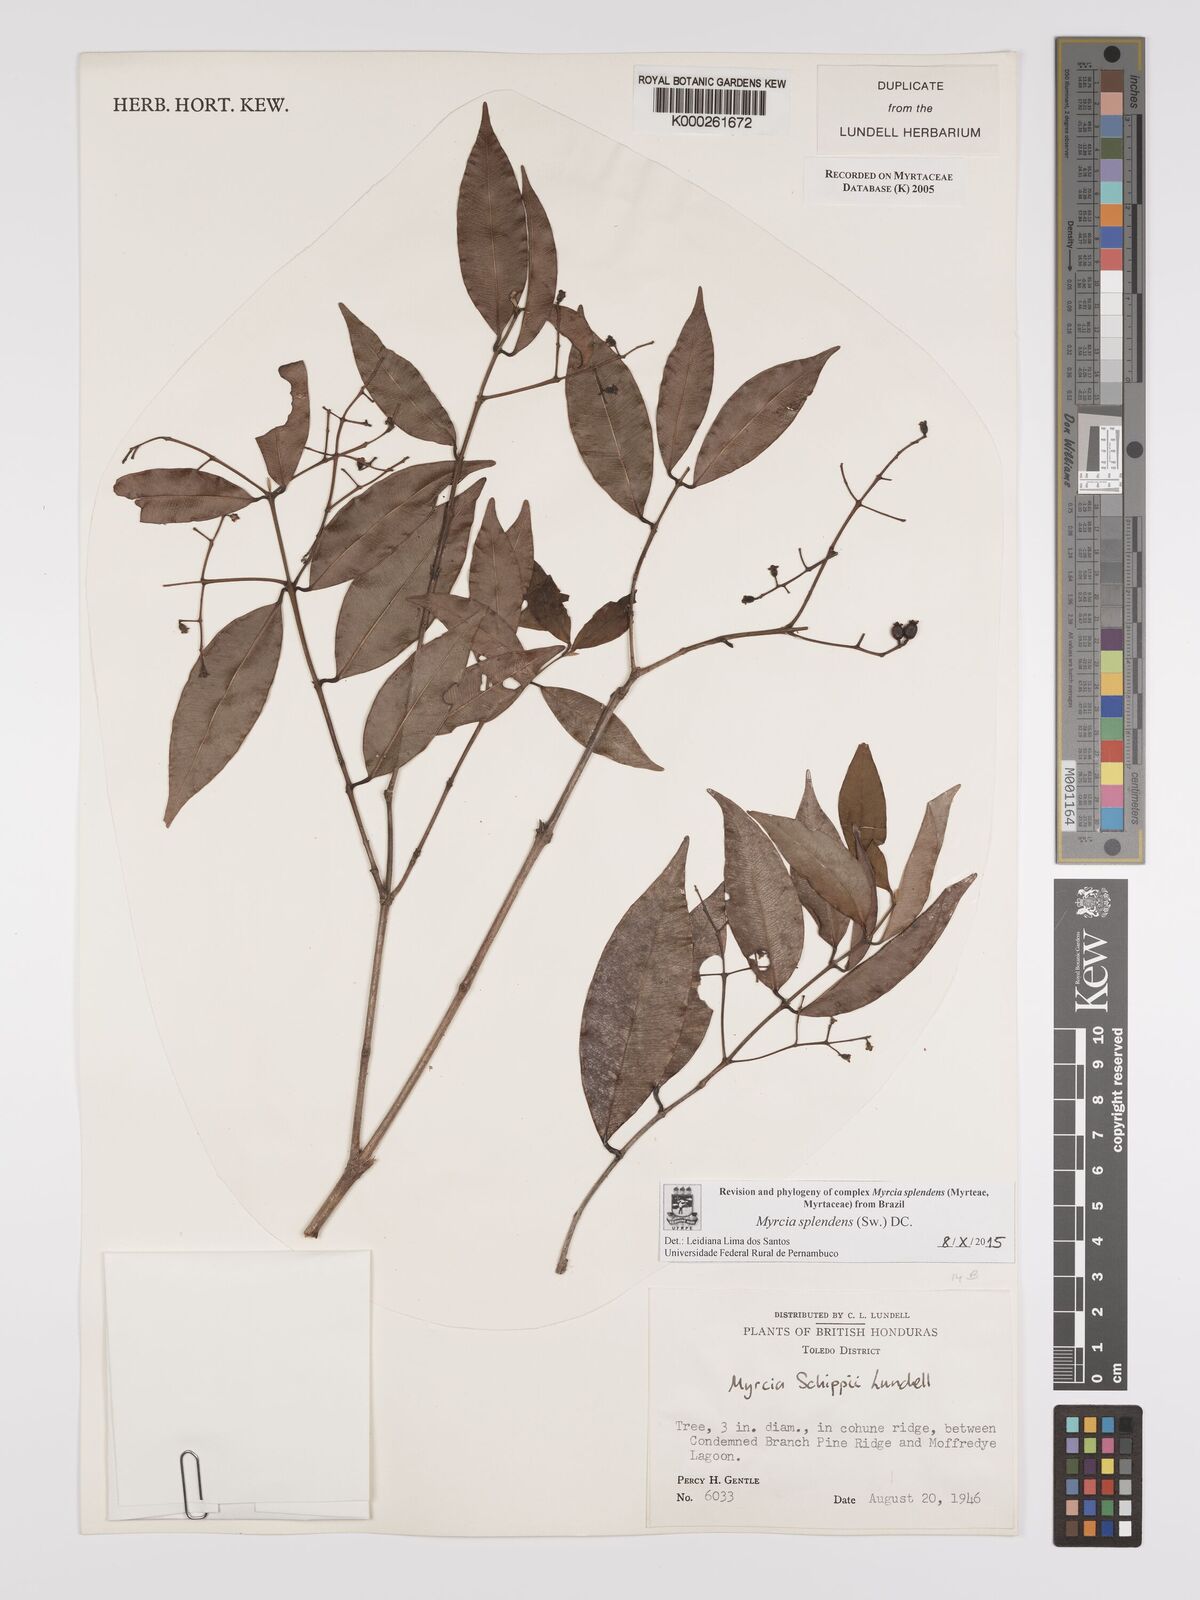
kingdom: Plantae
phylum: Tracheophyta
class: Magnoliopsida
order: Myrtales
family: Myrtaceae
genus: Myrcia
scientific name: Myrcia splendens
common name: Surinam cherry
